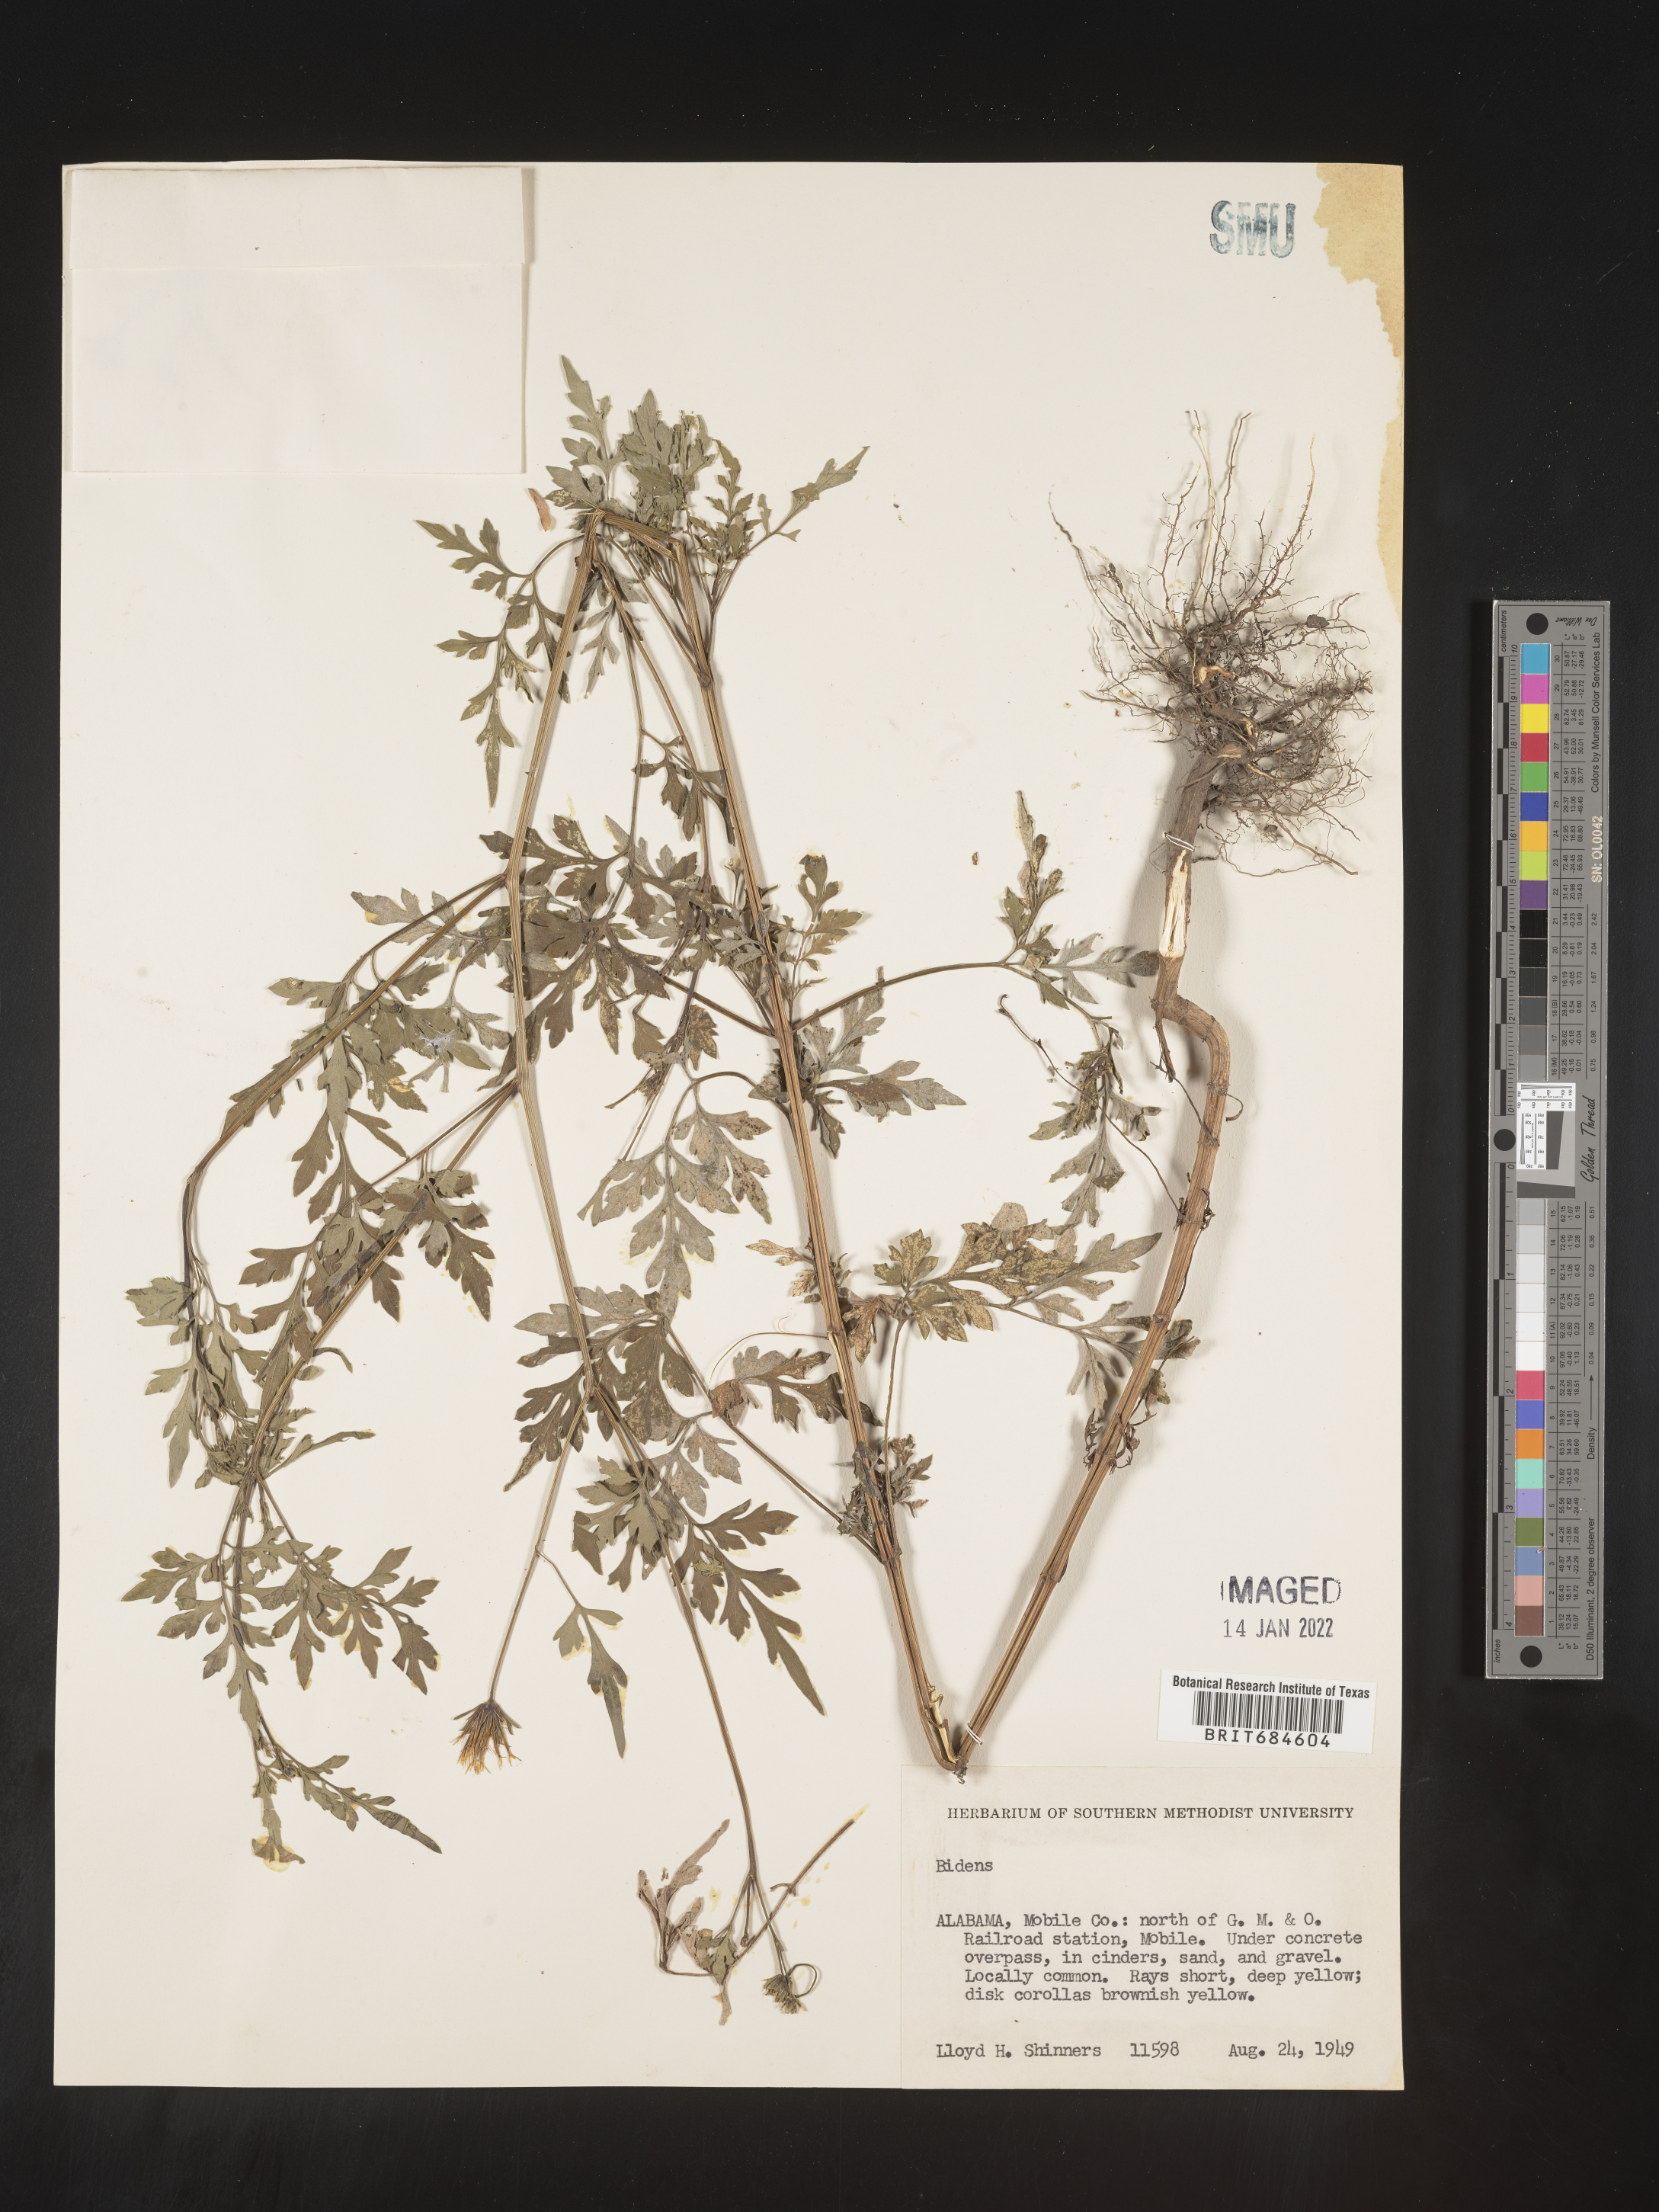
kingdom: Plantae
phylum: Tracheophyta
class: Magnoliopsida
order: Asterales
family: Asteraceae
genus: Bidens
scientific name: Bidens
